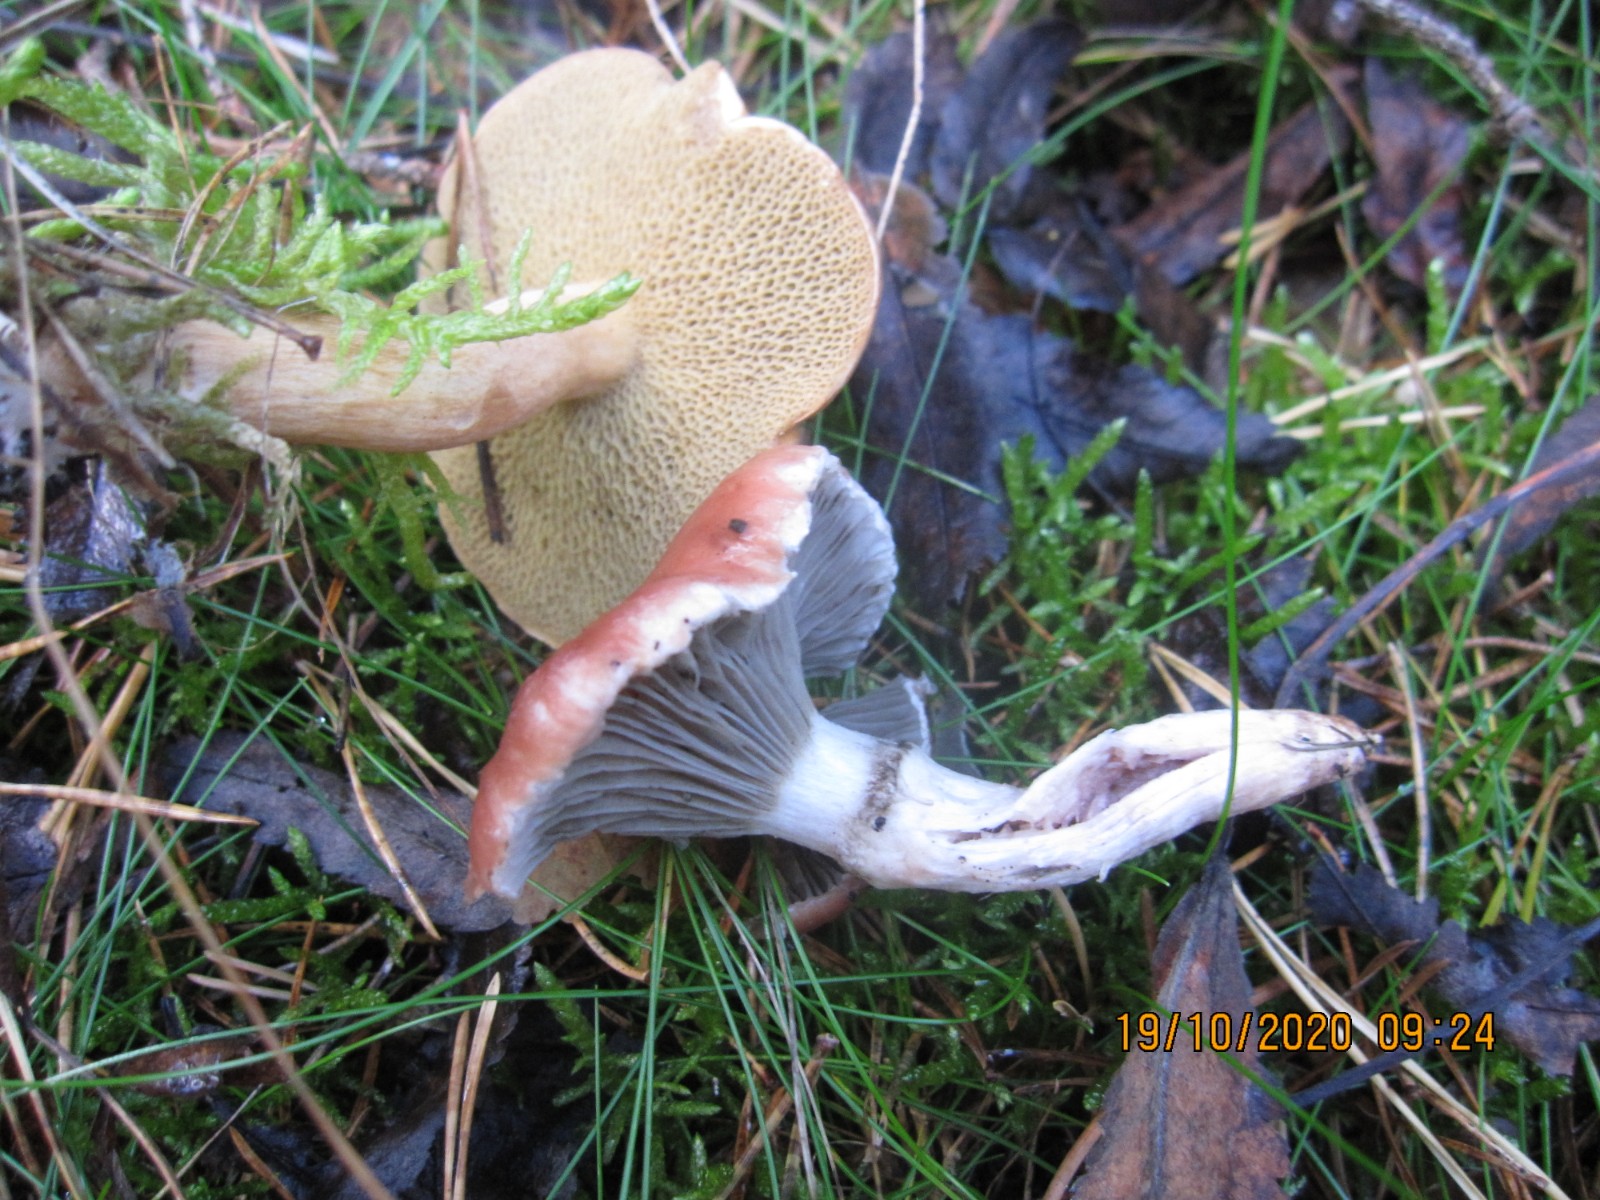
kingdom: Fungi
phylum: Basidiomycota
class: Agaricomycetes
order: Boletales
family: Gomphidiaceae
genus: Gomphidius
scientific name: Gomphidius roseus
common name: rosenrød slimslør
